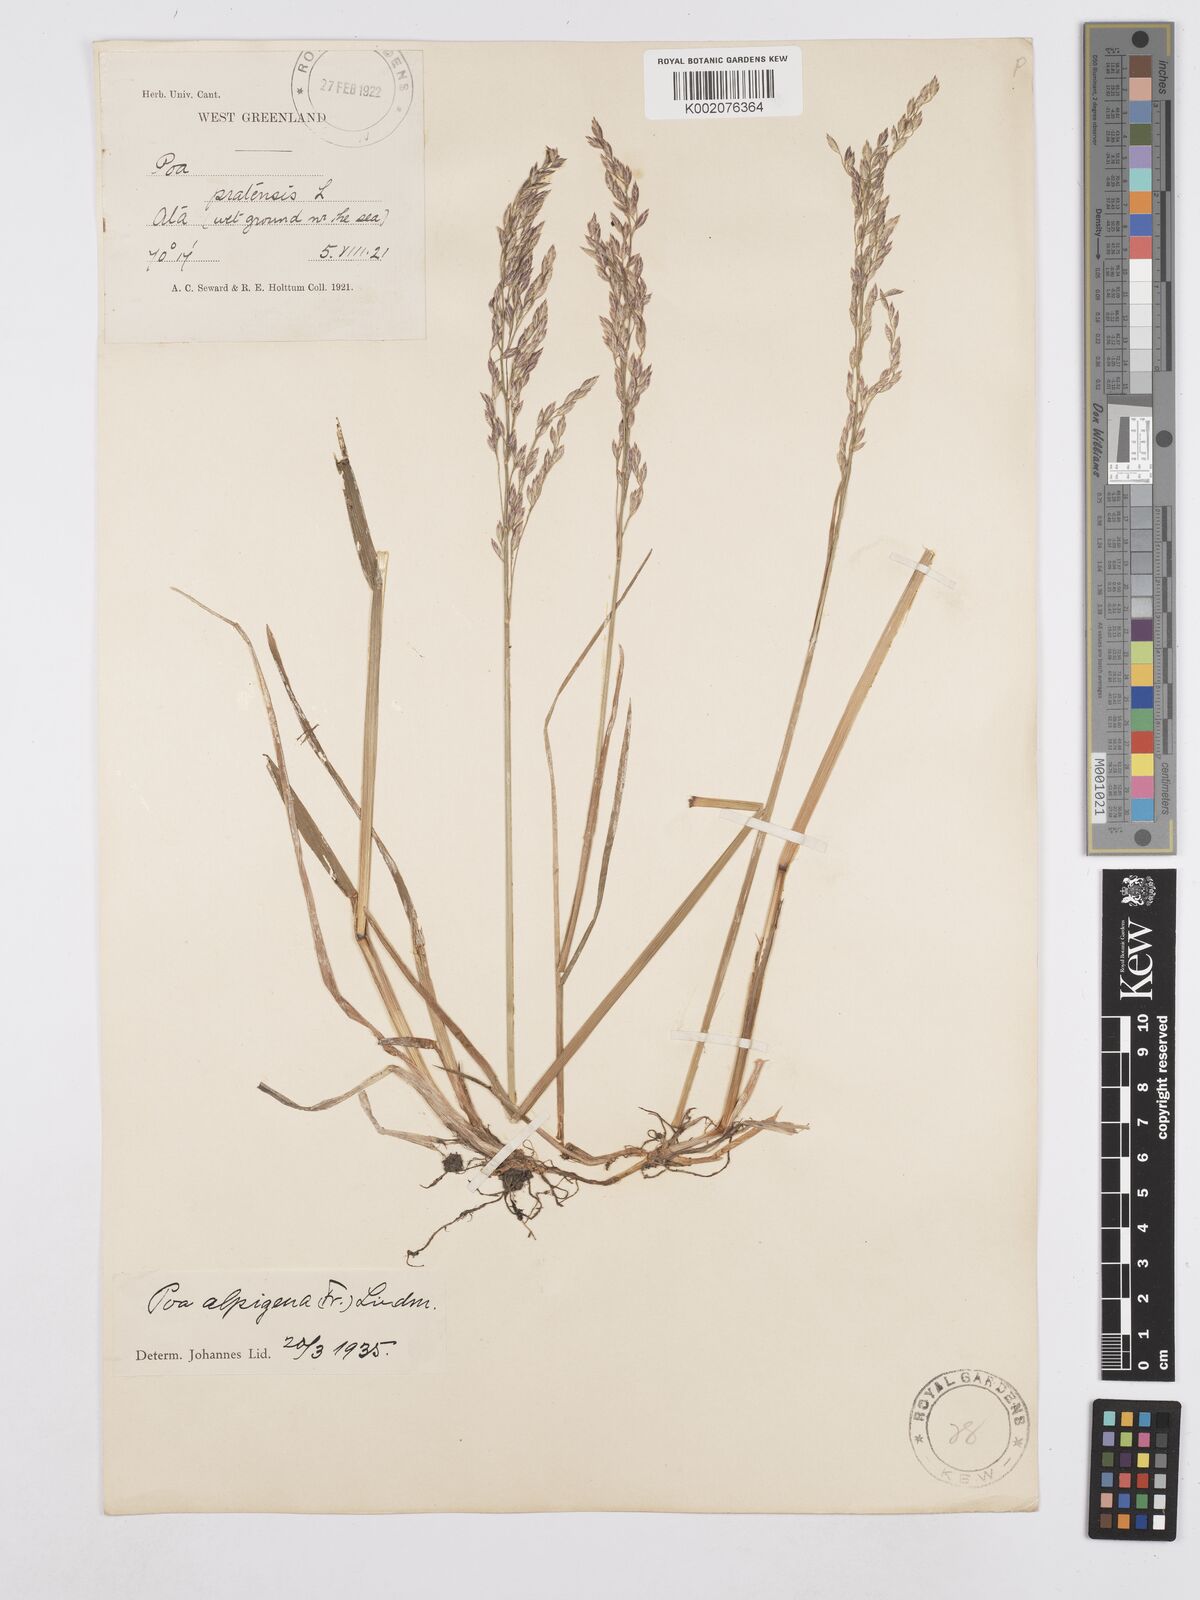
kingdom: Plantae
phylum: Tracheophyta
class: Liliopsida
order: Poales
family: Poaceae
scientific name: Poaceae
